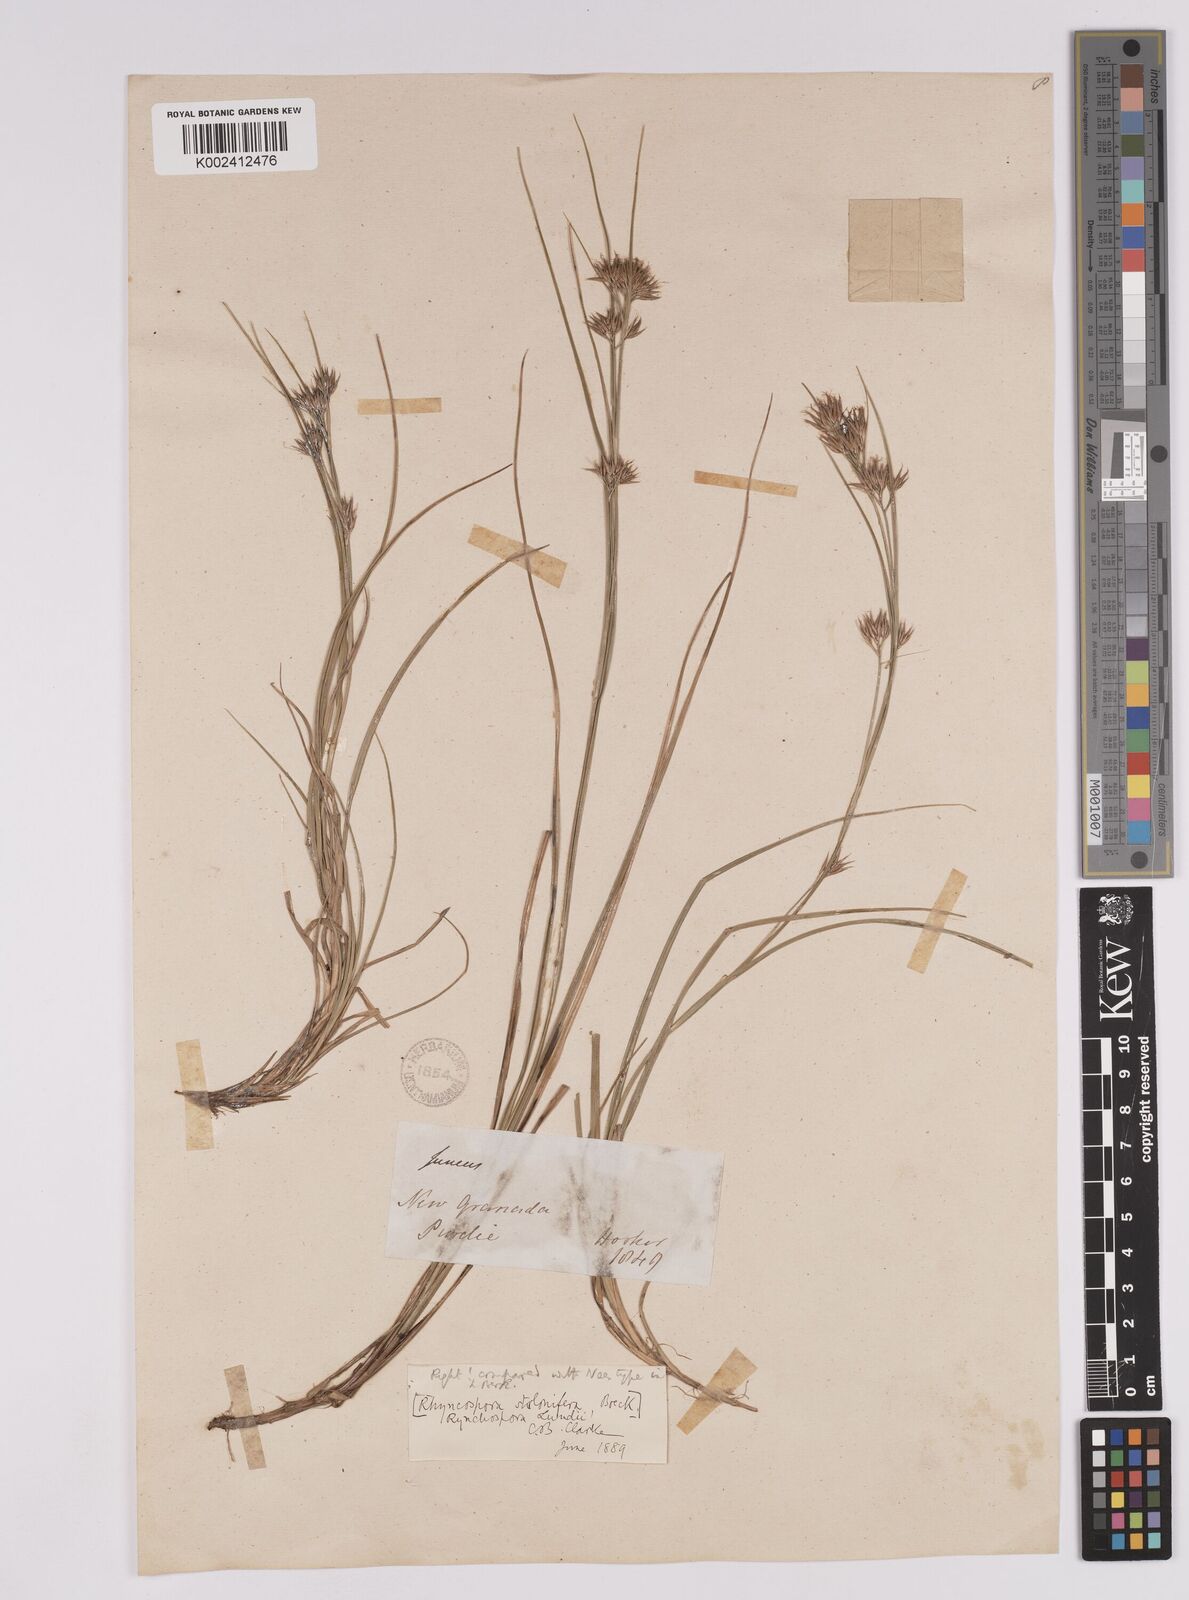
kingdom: Plantae
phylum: Tracheophyta
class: Liliopsida
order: Poales
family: Cyperaceae
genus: Rhynchospora
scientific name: Rhynchospora confinis
